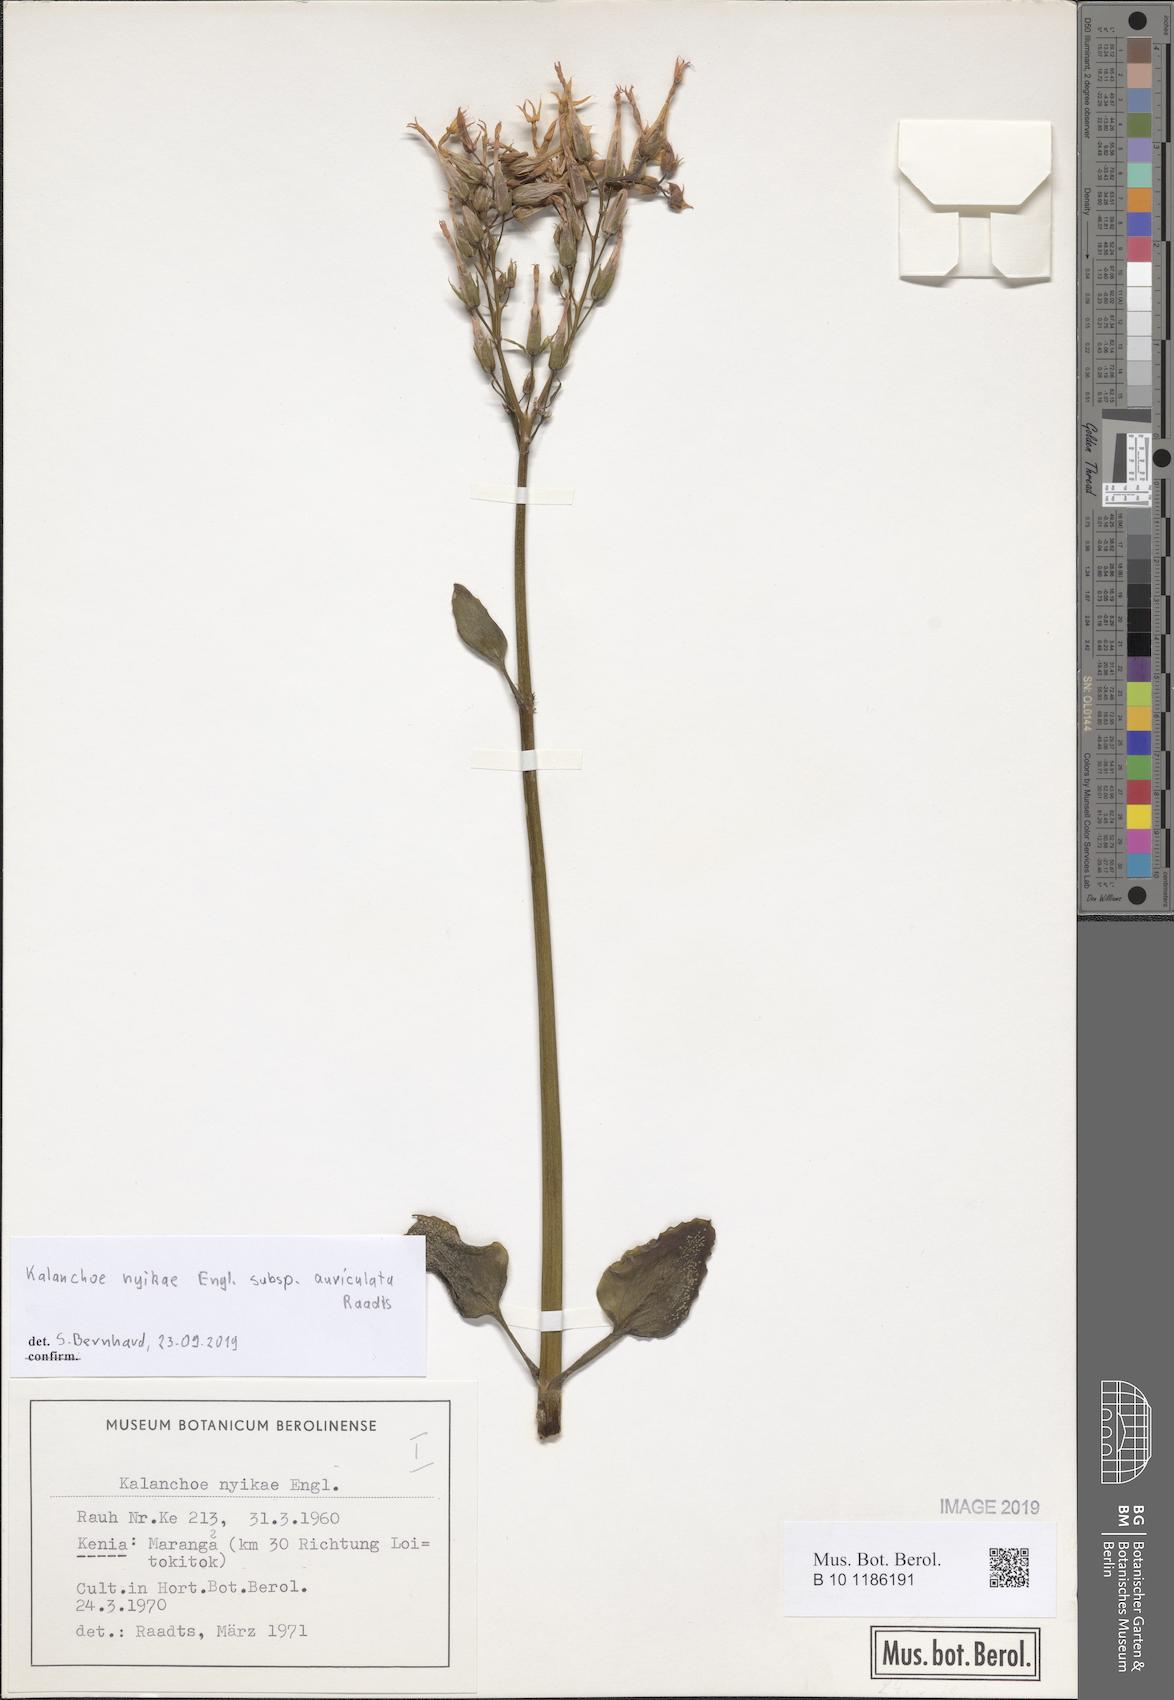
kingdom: Plantae
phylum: Tracheophyta
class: Magnoliopsida
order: Saxifragales
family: Crassulaceae
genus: Kalanchoe
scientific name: Kalanchoe auriculata
